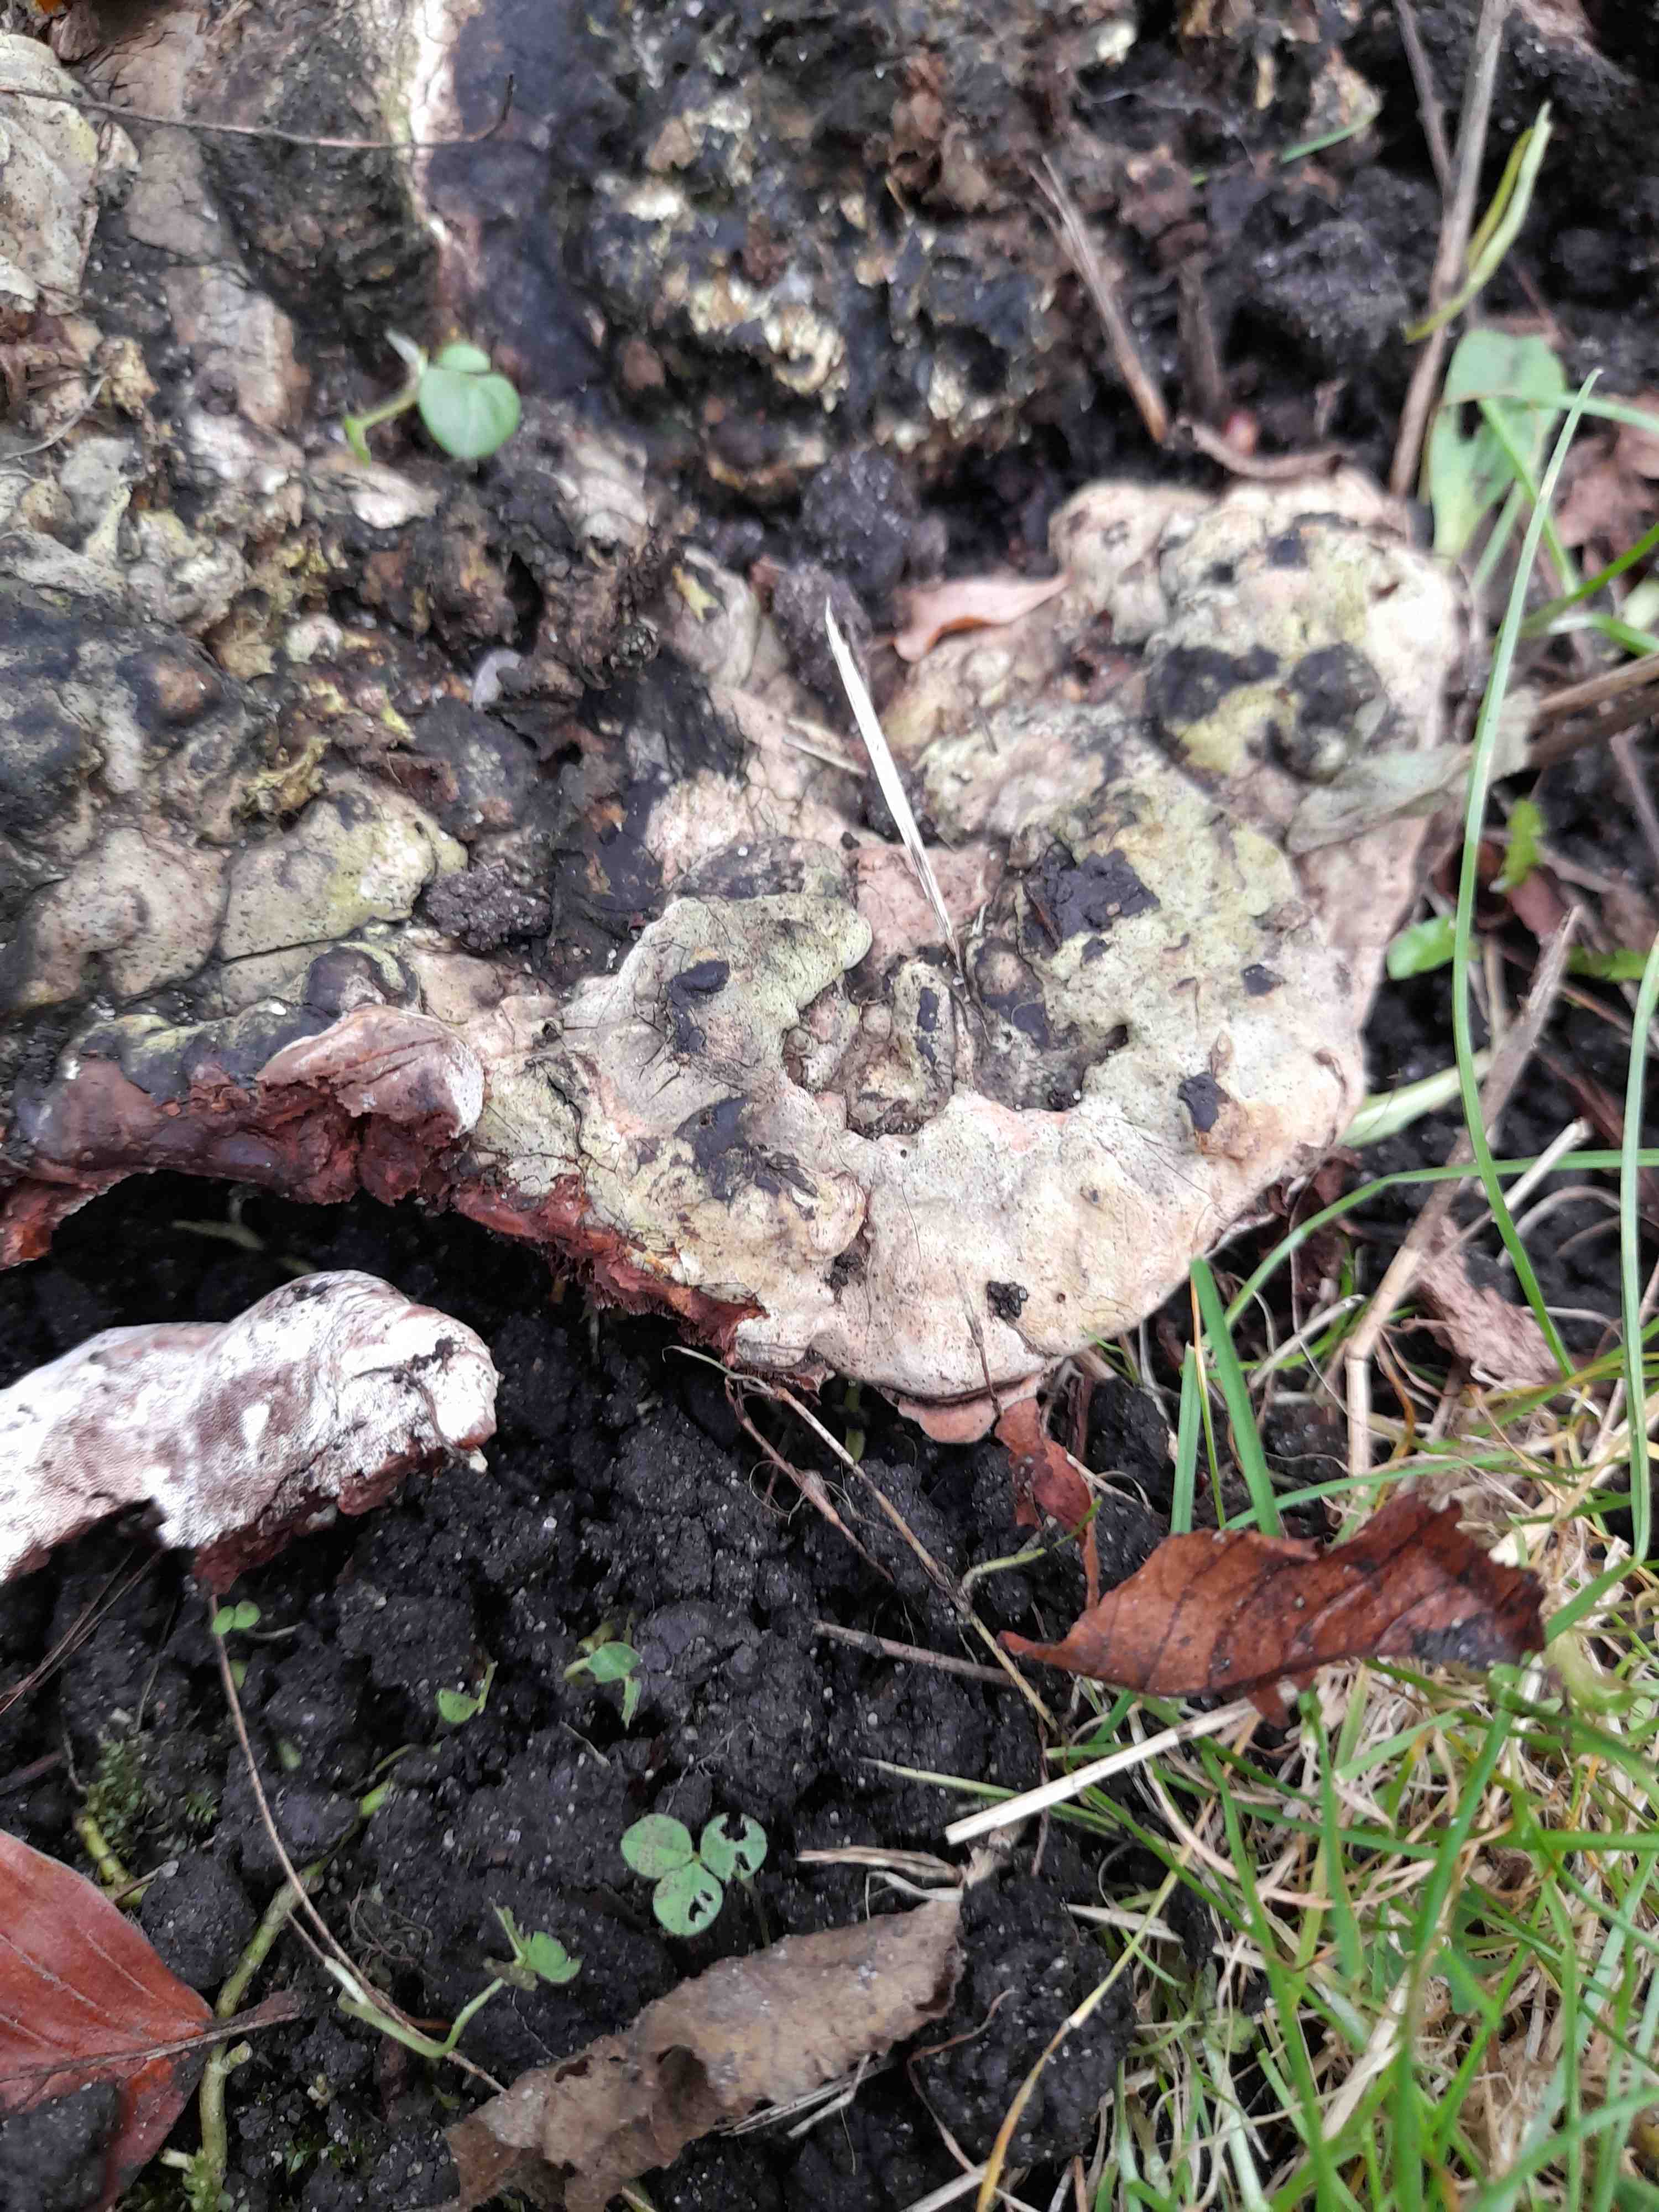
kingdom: Fungi
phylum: Basidiomycota
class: Agaricomycetes
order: Polyporales
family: Polyporaceae
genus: Ganoderma
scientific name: Ganoderma applanatum
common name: flad lakporesvamp
